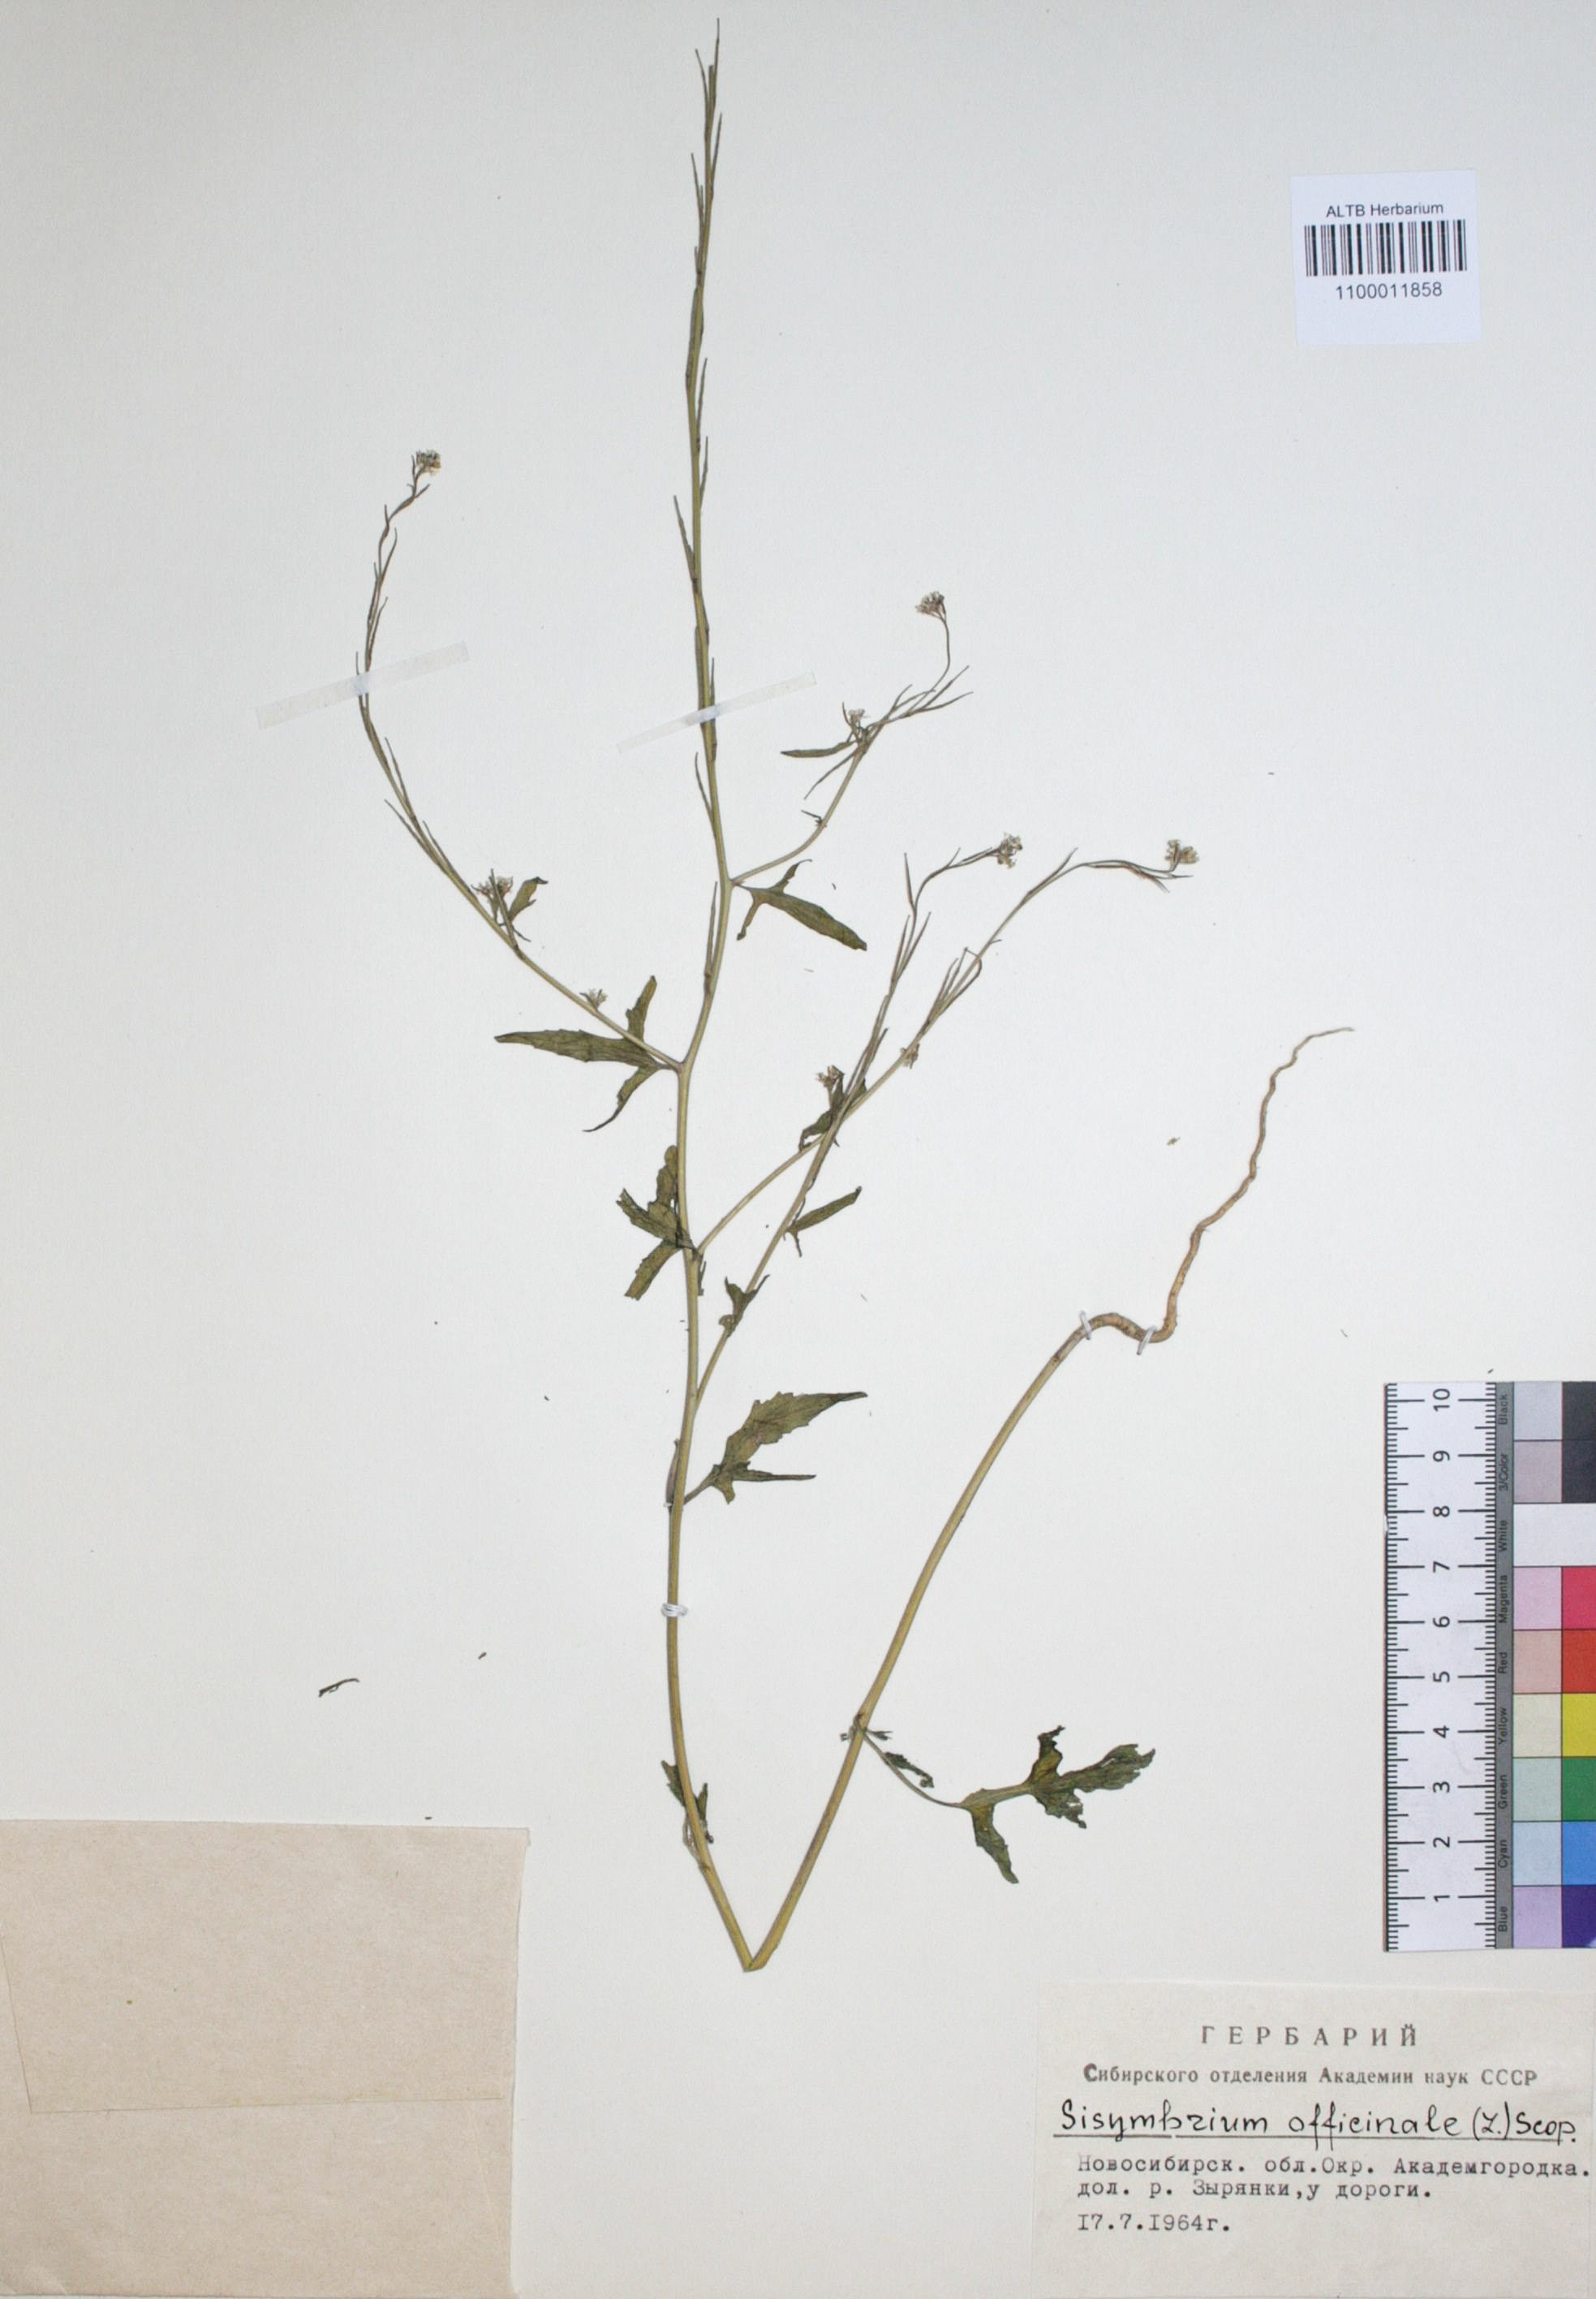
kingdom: Plantae
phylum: Tracheophyta
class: Magnoliopsida
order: Brassicales
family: Brassicaceae
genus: Sisymbrium
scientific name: Sisymbrium officinale
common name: Hedge mustard
